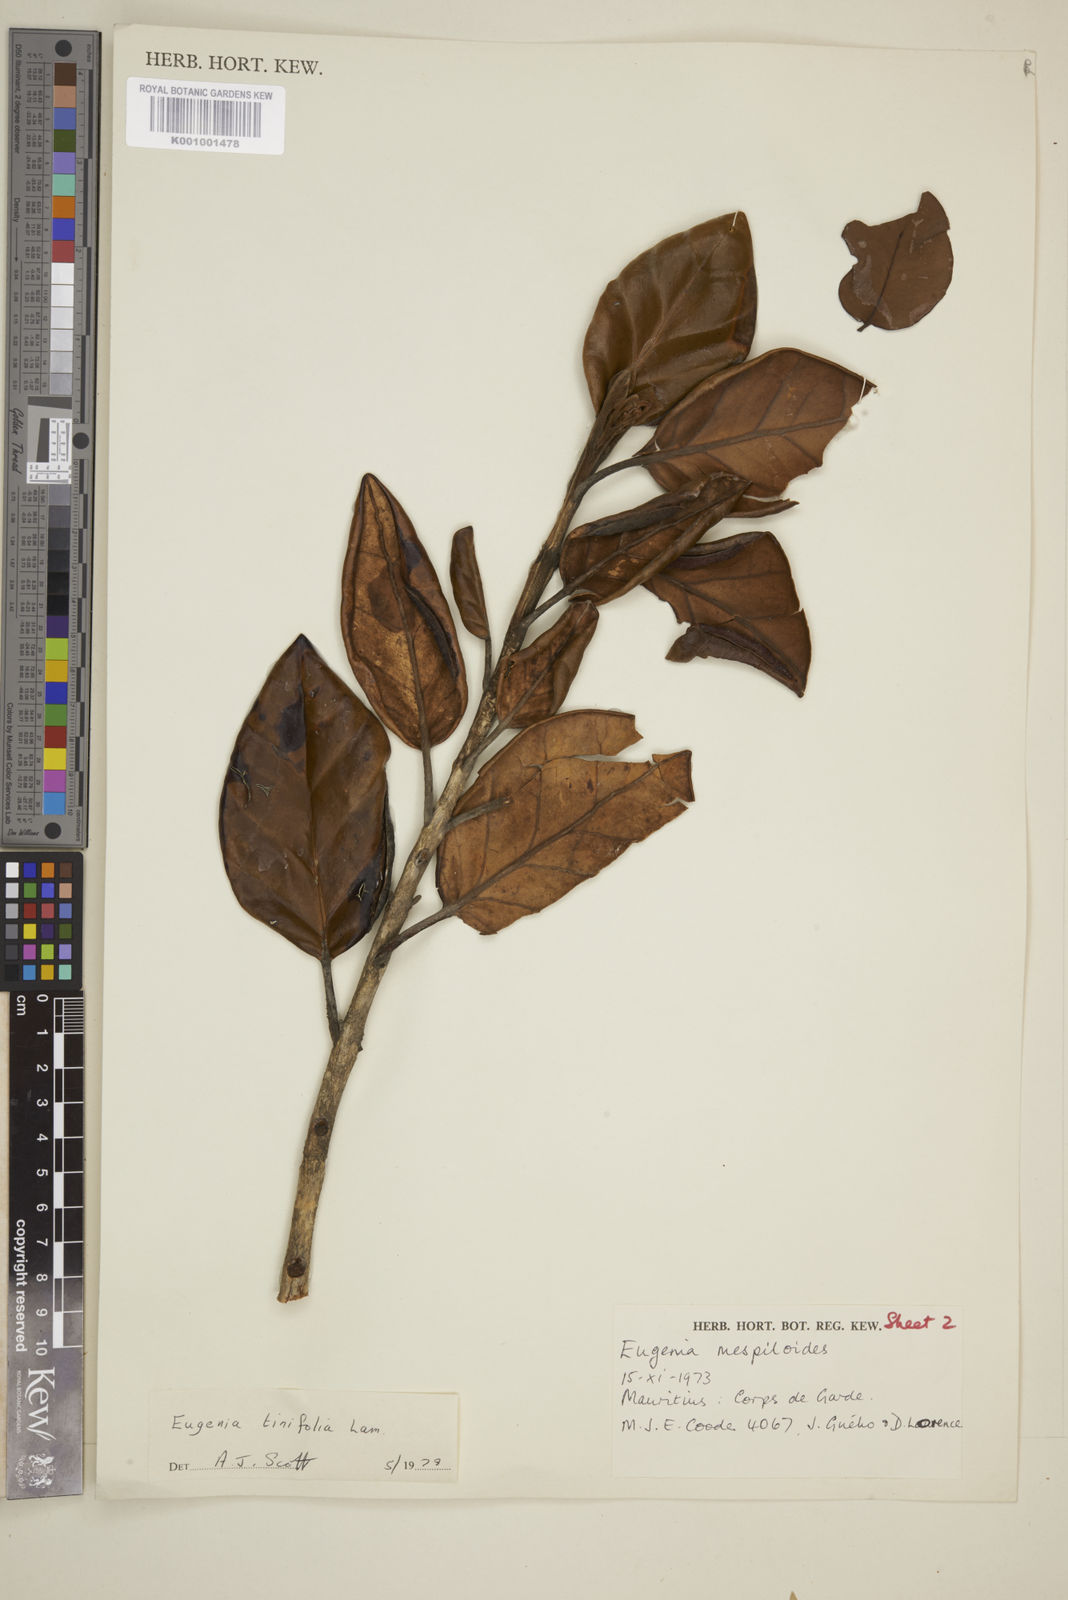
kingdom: Plantae
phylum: Tracheophyta
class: Magnoliopsida
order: Myrtales
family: Myrtaceae
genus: Eugenia
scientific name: Eugenia mespiloides
